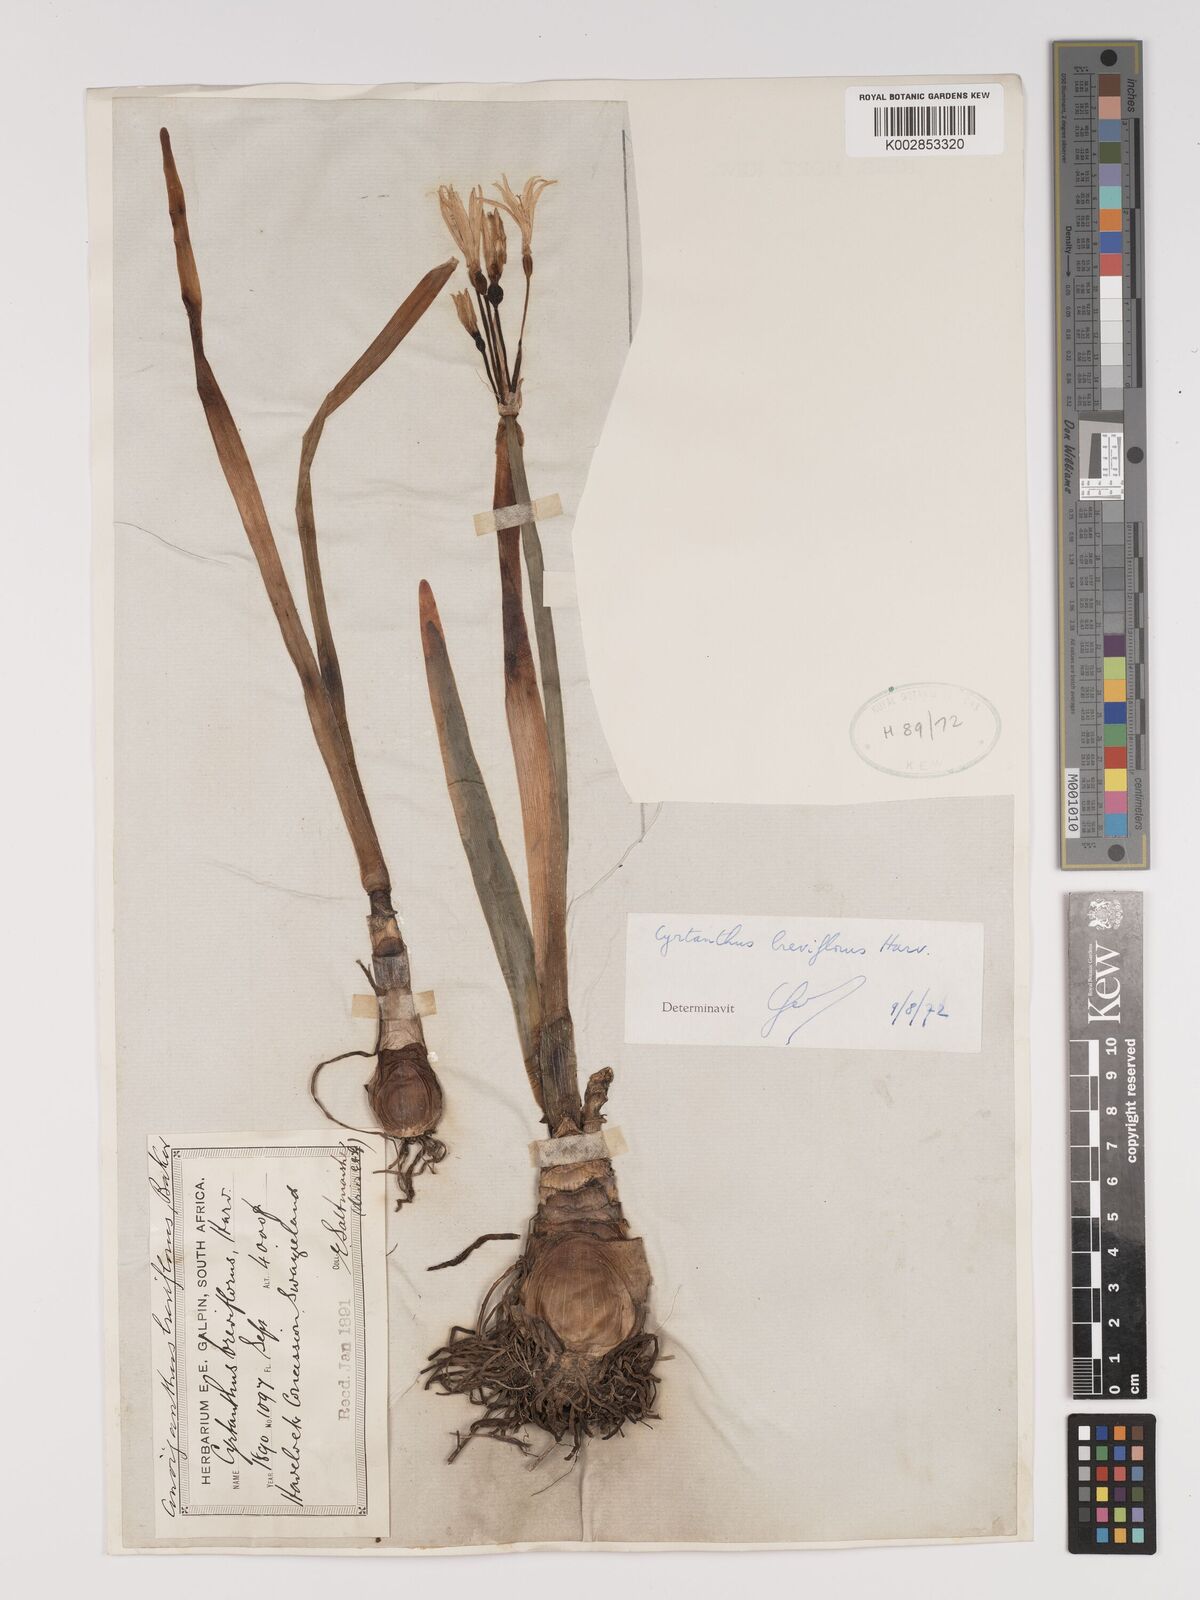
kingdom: Plantae
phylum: Tracheophyta
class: Liliopsida
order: Asparagales
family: Amaryllidaceae
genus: Cyrtanthus
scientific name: Cyrtanthus breviflorus
